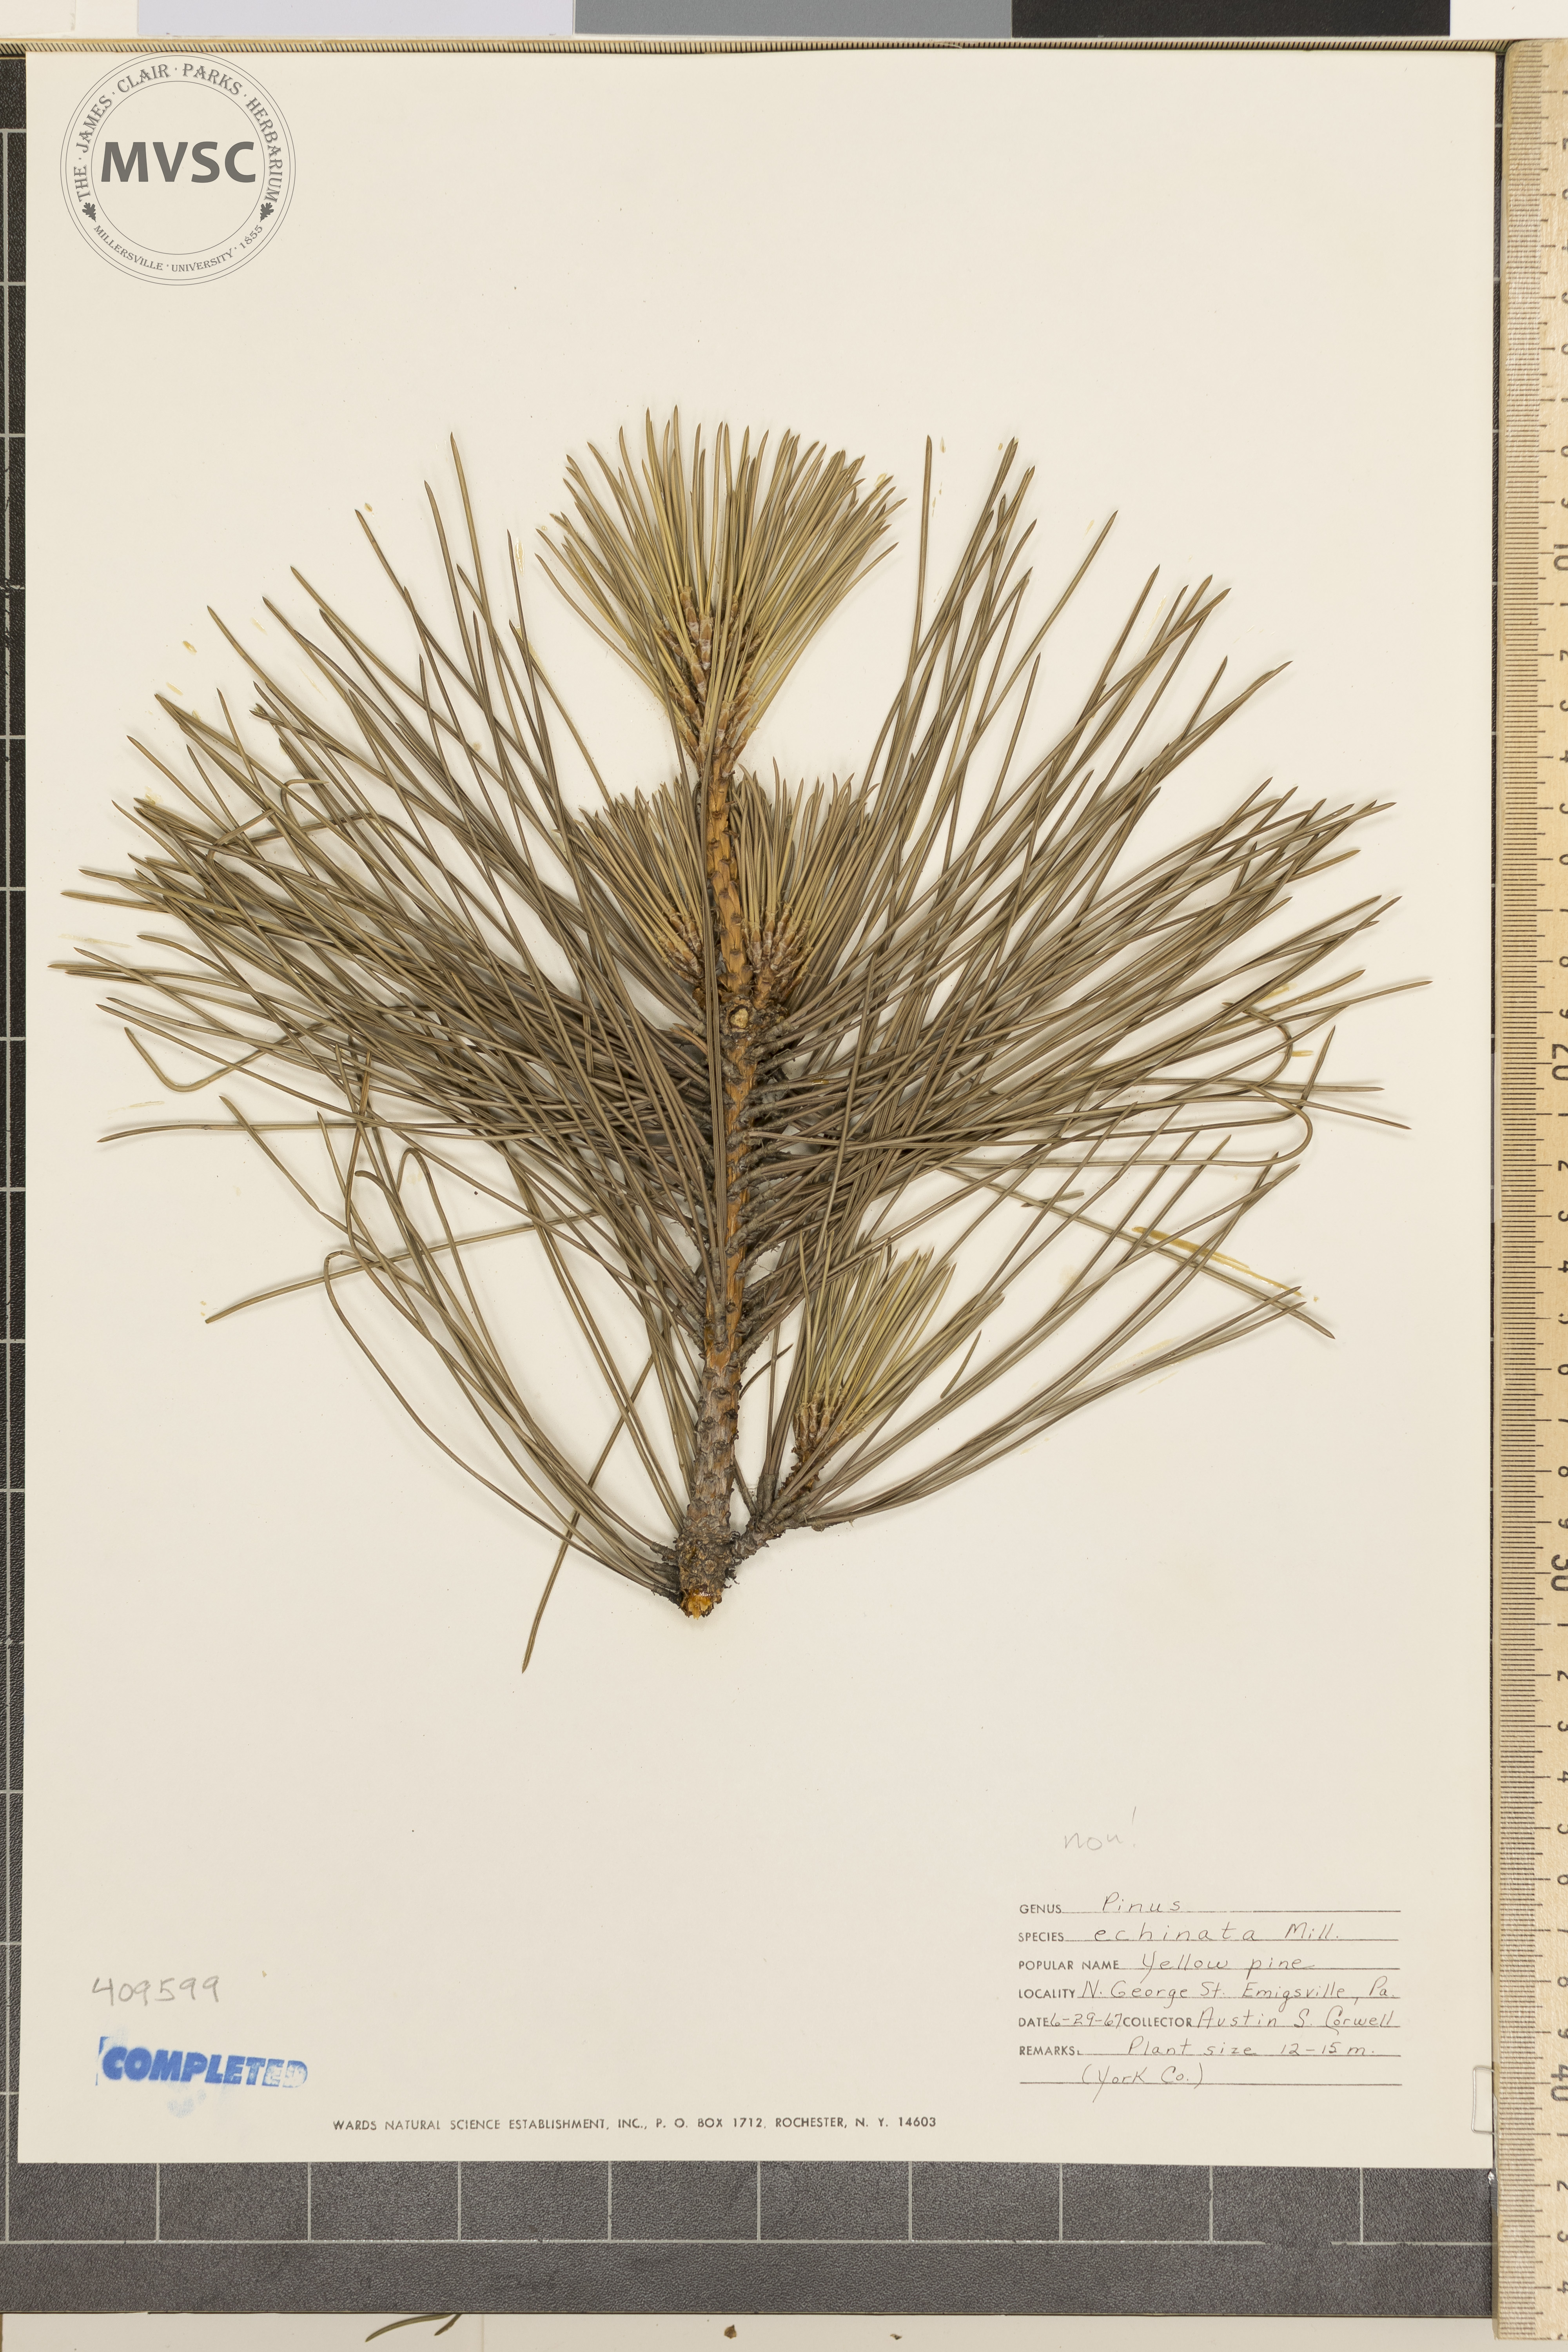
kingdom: Plantae
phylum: Tracheophyta
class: Pinopsida
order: Pinales
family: Pinaceae
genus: Pinus
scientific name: Pinus echinata
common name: Shortleaf pine
